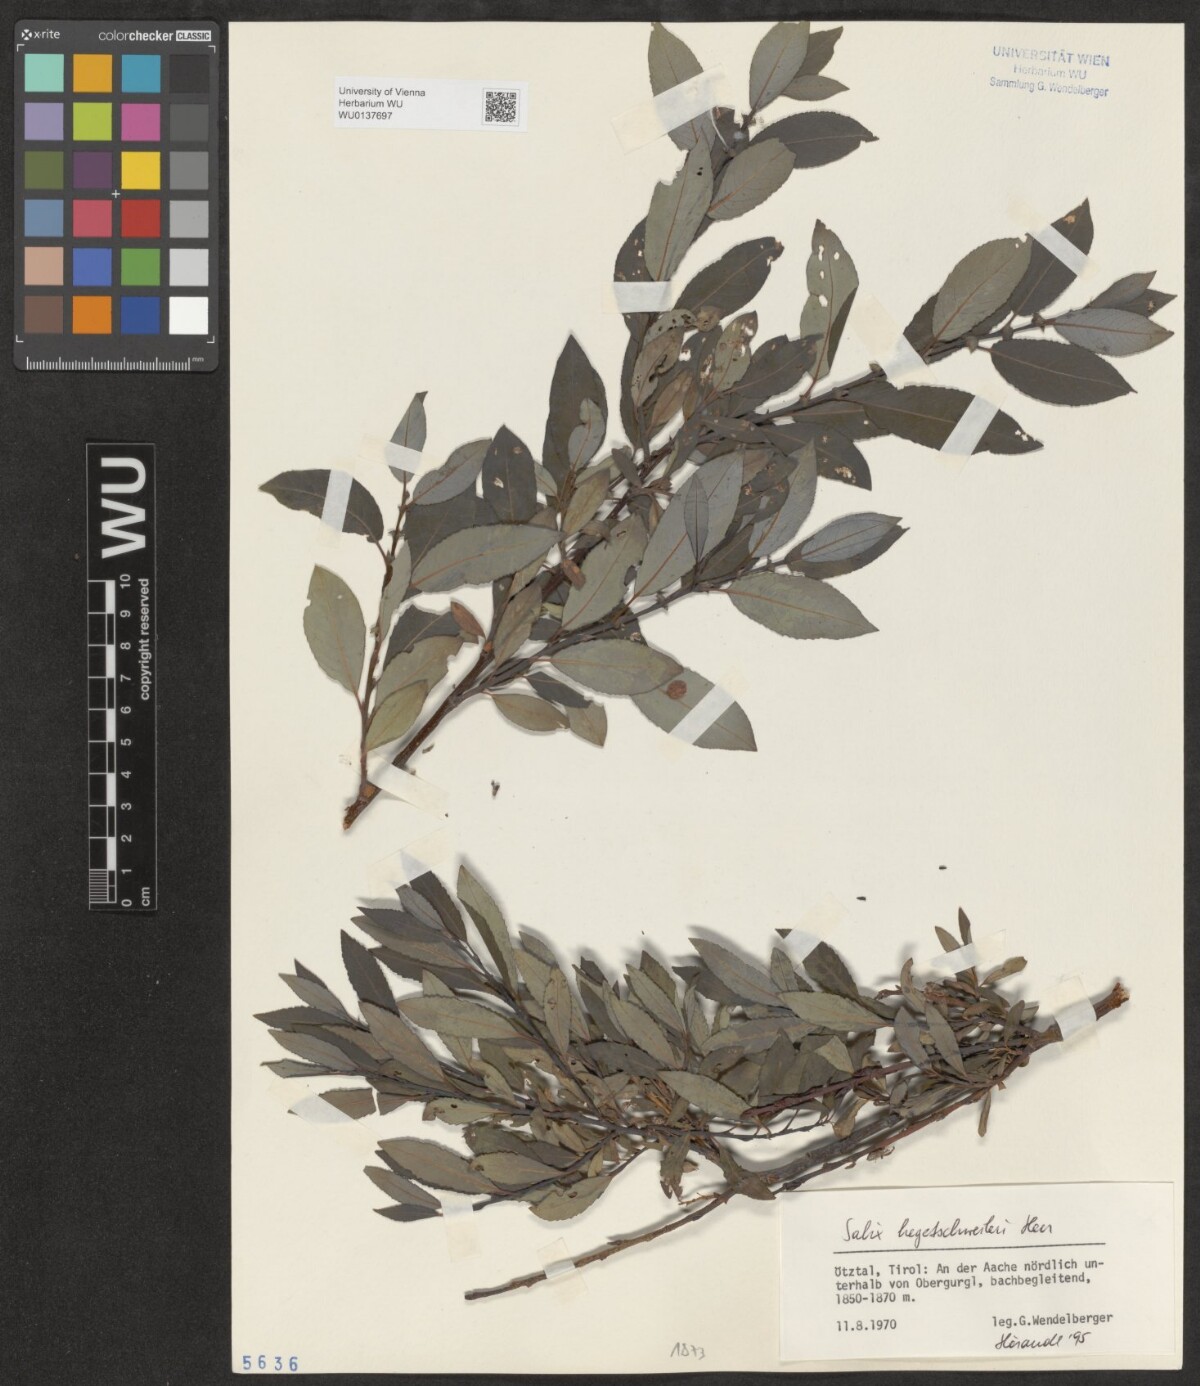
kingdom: Plantae
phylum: Tracheophyta
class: Magnoliopsida
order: Malpighiales
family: Salicaceae
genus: Salix
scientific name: Salix hegetschweileri
